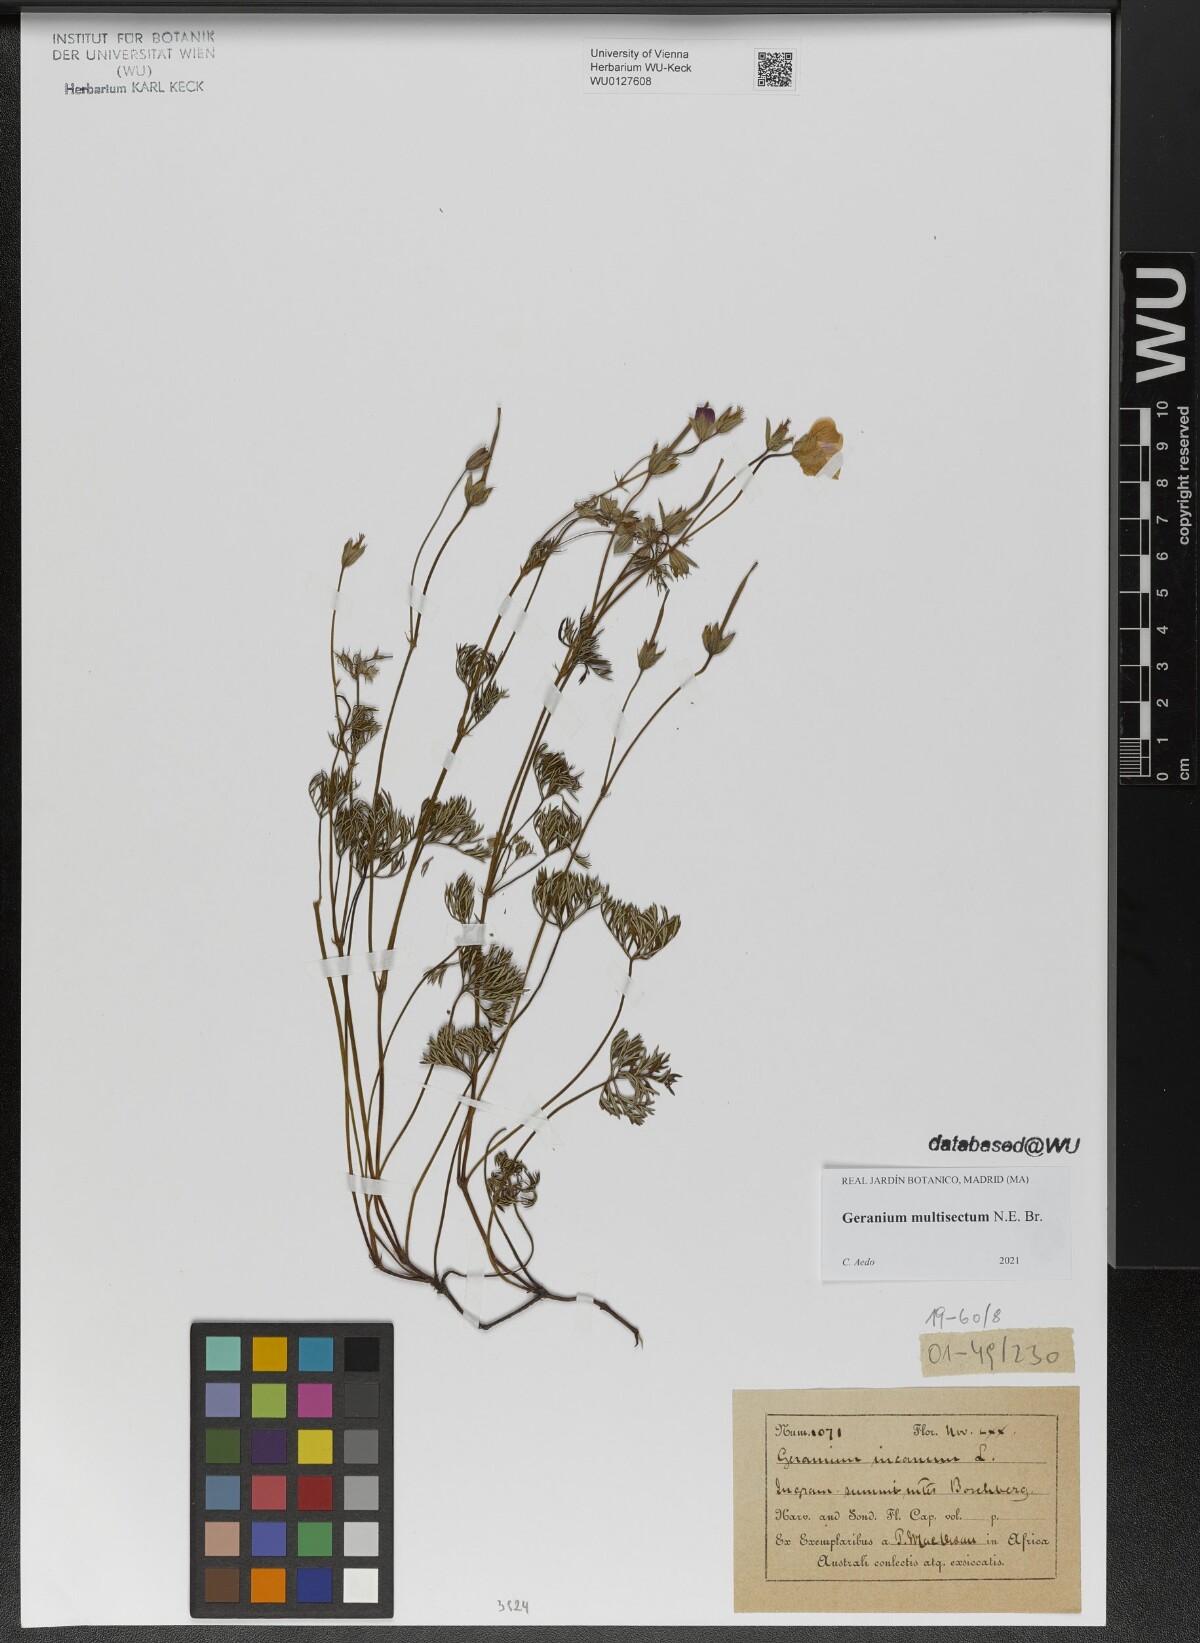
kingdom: Plantae
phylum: Tracheophyta
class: Magnoliopsida
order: Geraniales
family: Geraniaceae
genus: Geranium
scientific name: Geranium multisectum
